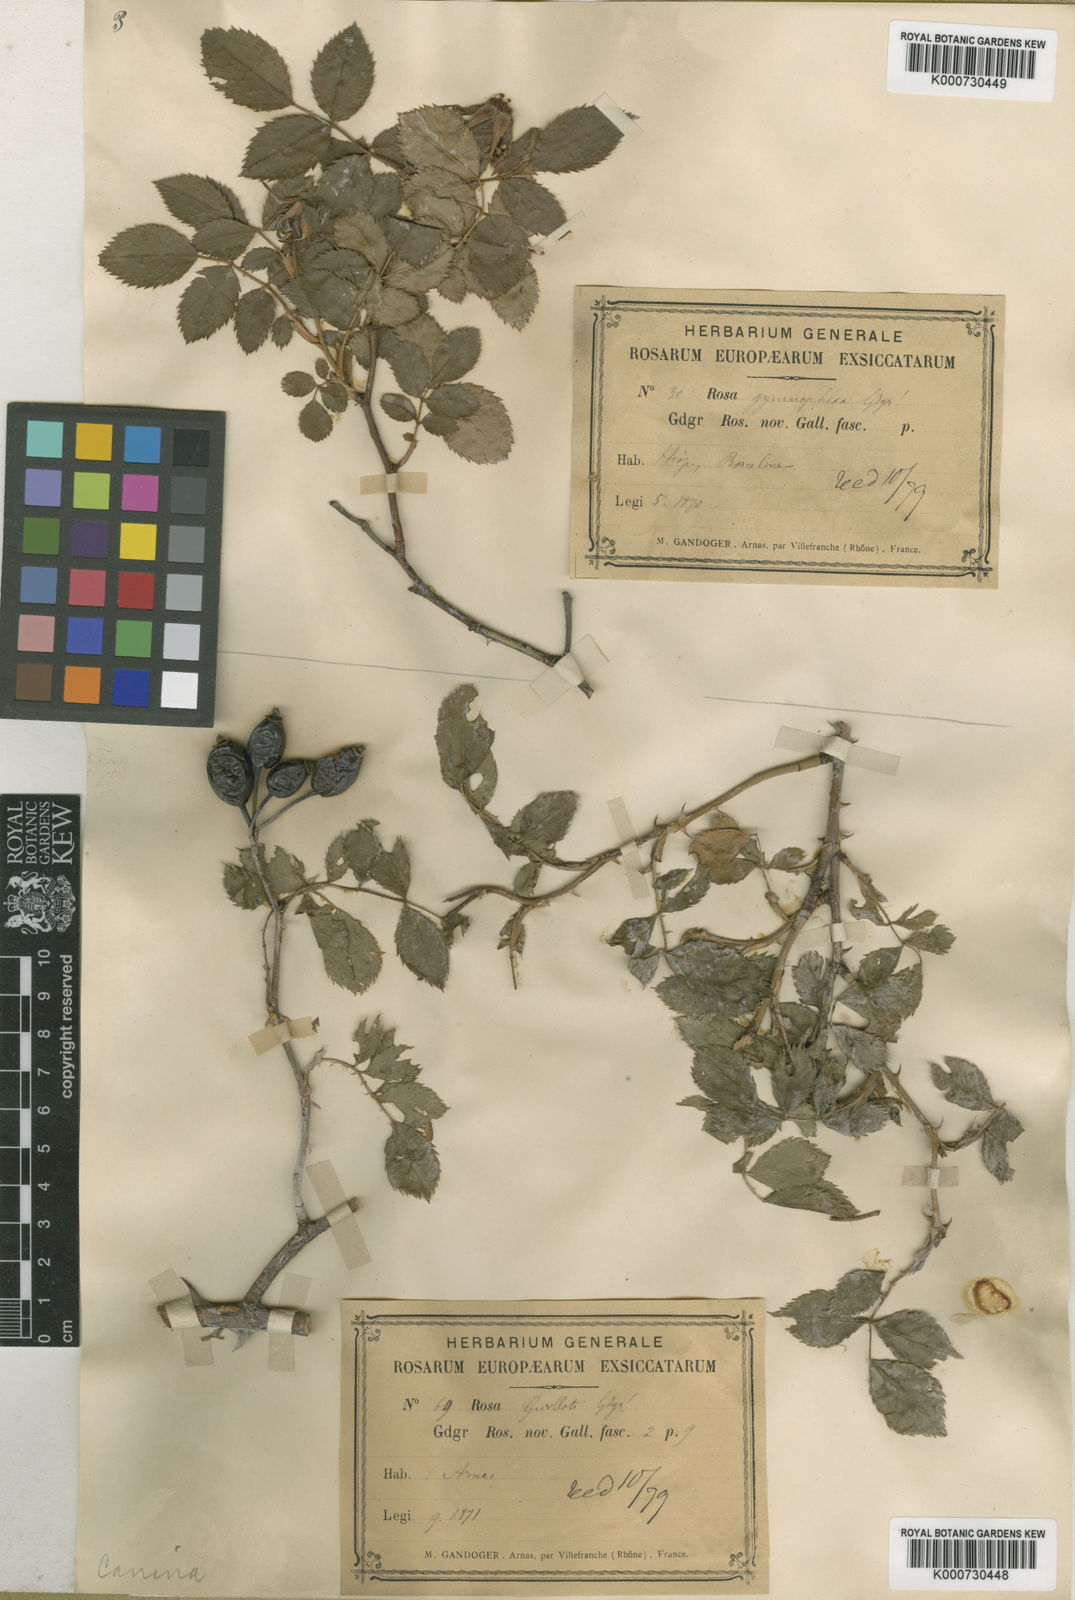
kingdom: Plantae
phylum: Tracheophyta
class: Magnoliopsida
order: Rosales
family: Rosaceae
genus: Rosa
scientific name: Rosa canina
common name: Dog rose
